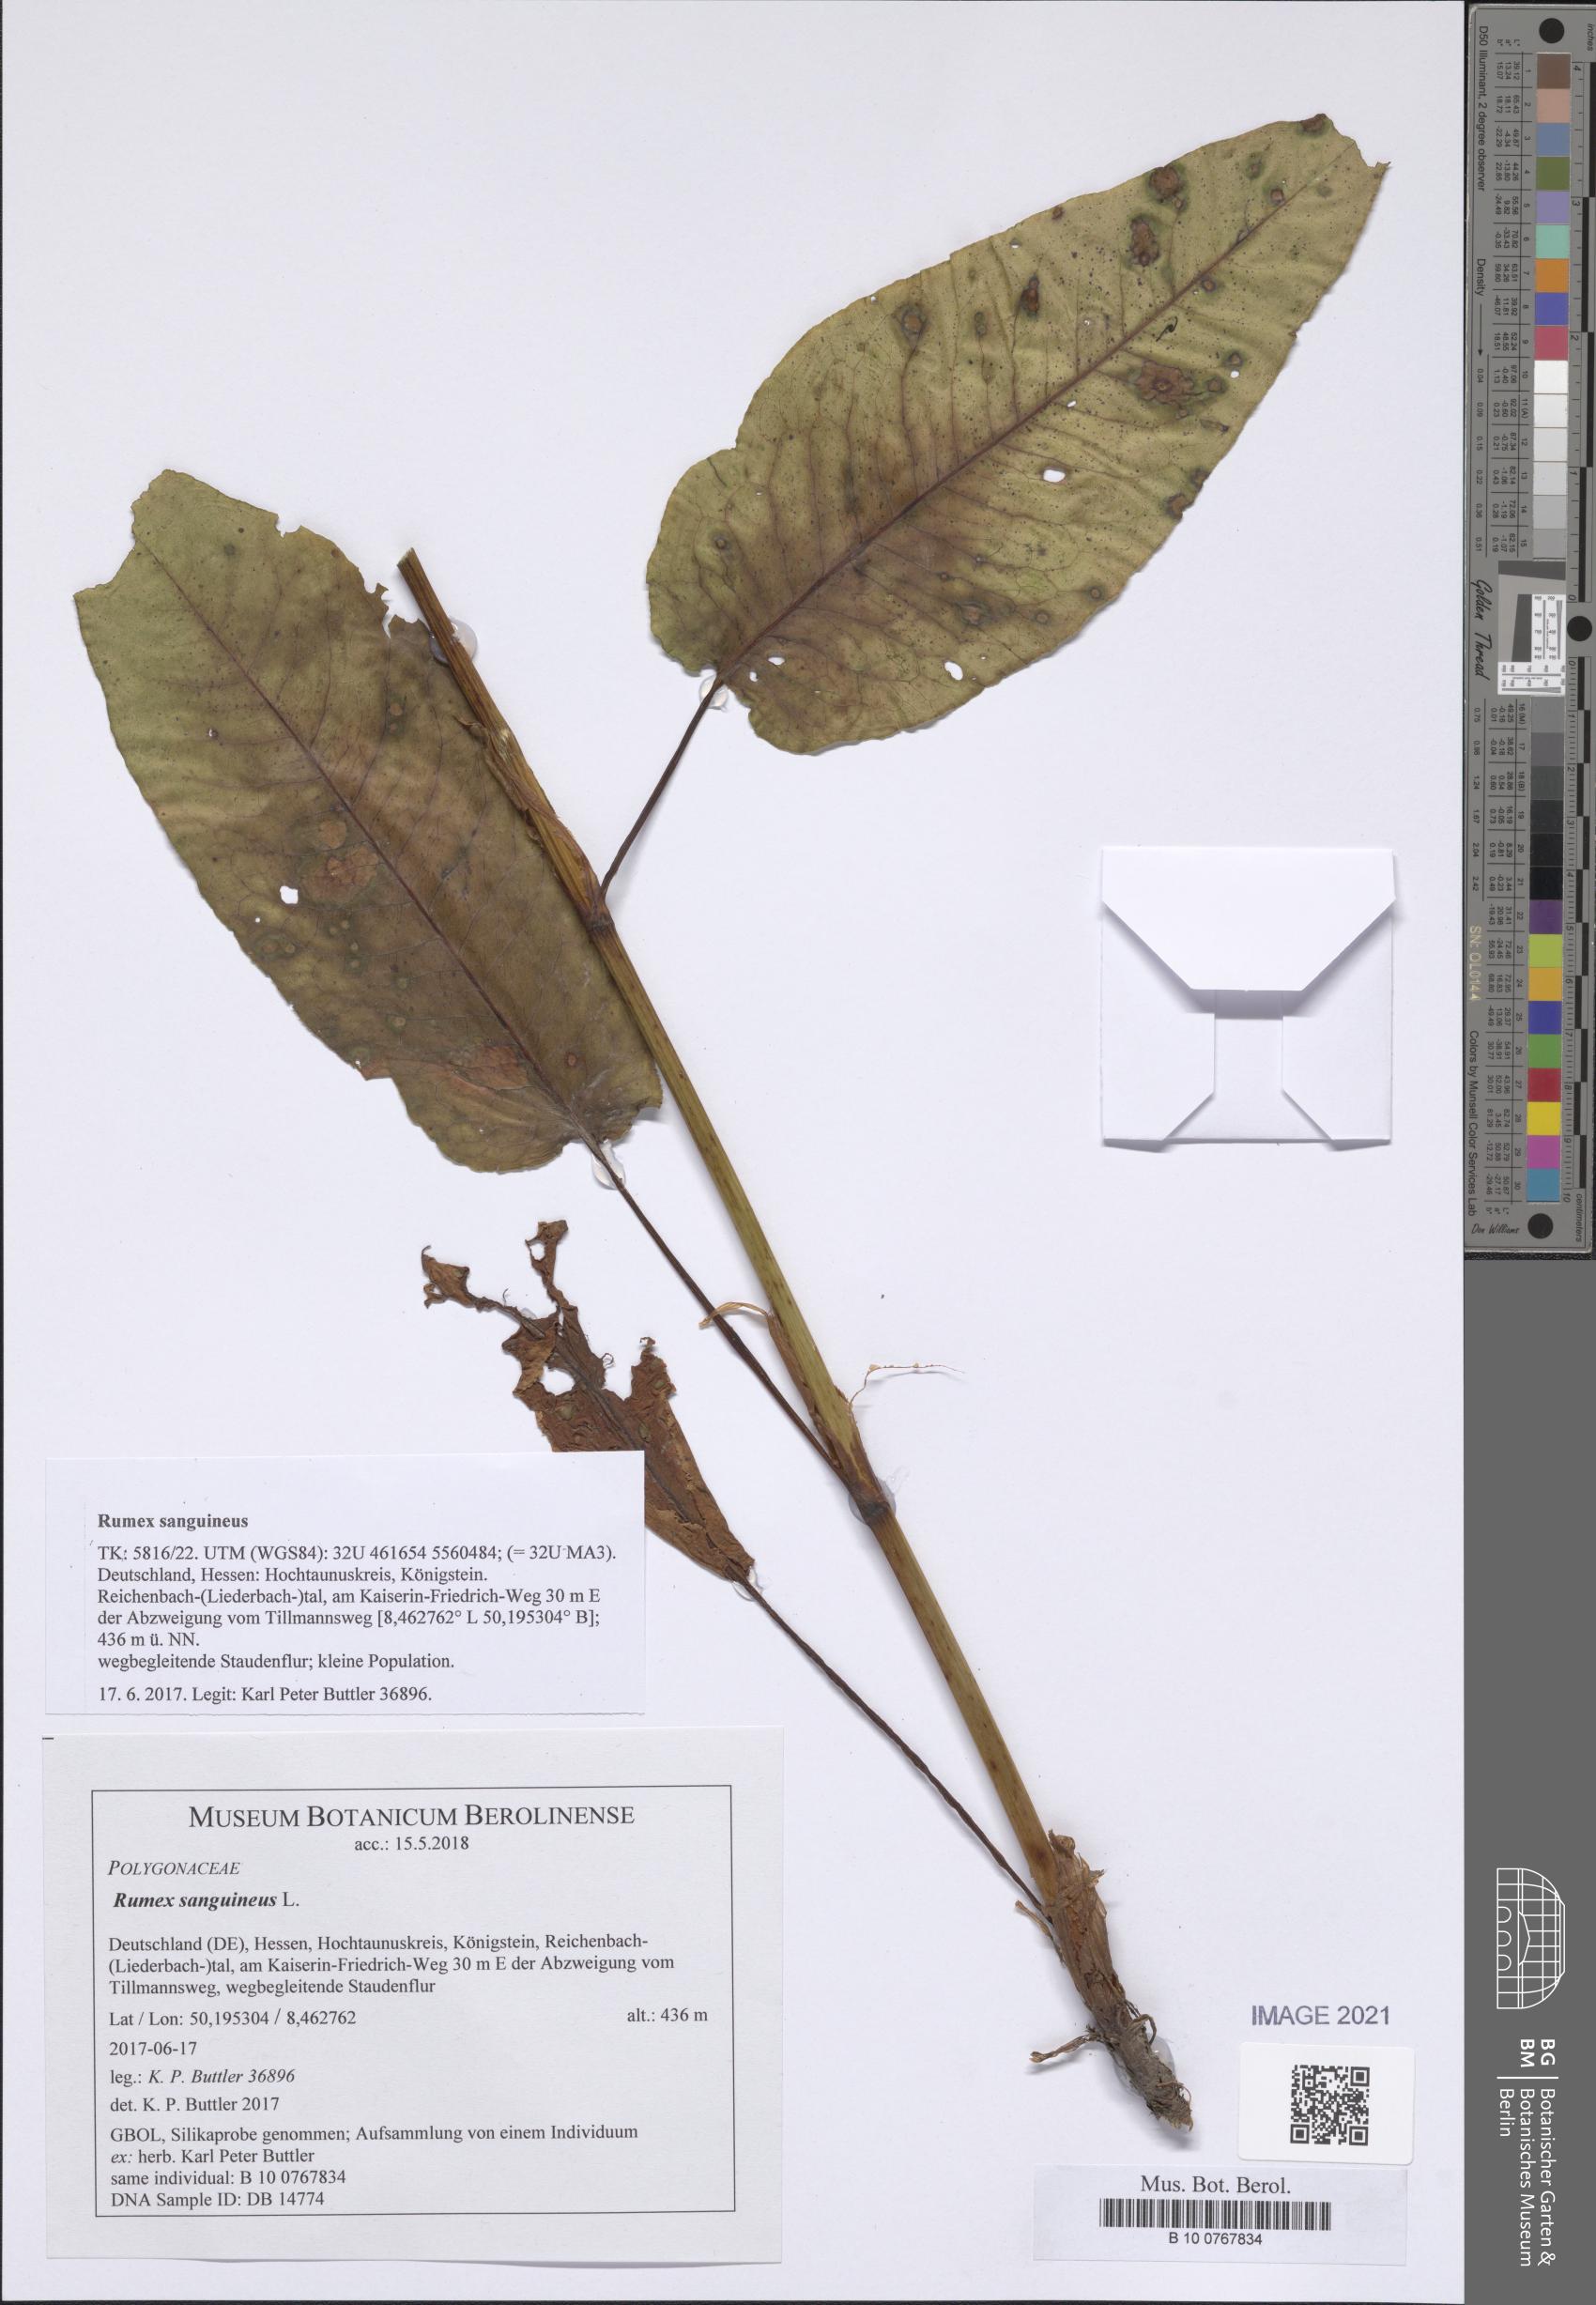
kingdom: Plantae
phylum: Tracheophyta
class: Magnoliopsida
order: Caryophyllales
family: Polygonaceae
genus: Rumex
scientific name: Rumex sanguineus
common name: Wood dock
